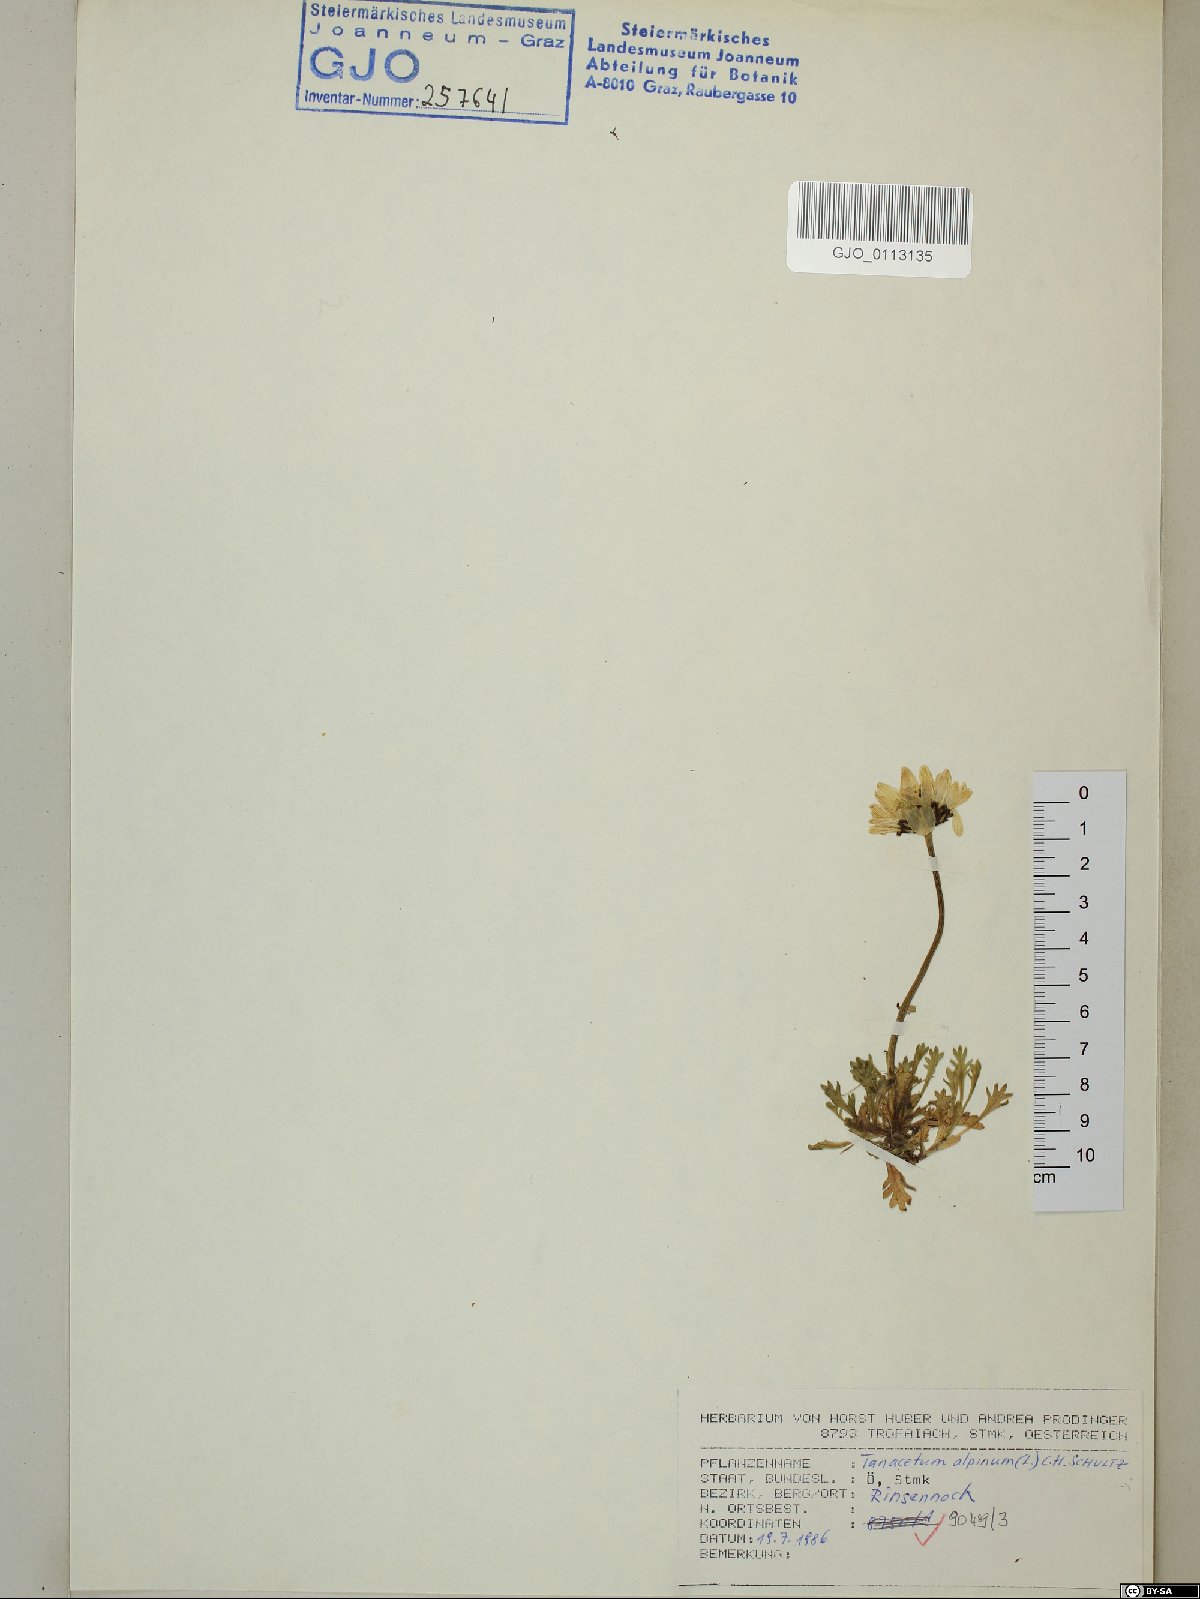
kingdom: Plantae
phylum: Tracheophyta
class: Magnoliopsida
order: Asterales
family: Asteraceae
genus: Leucanthemopsis
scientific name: Leucanthemopsis alpina
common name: Alpine moon daisy
